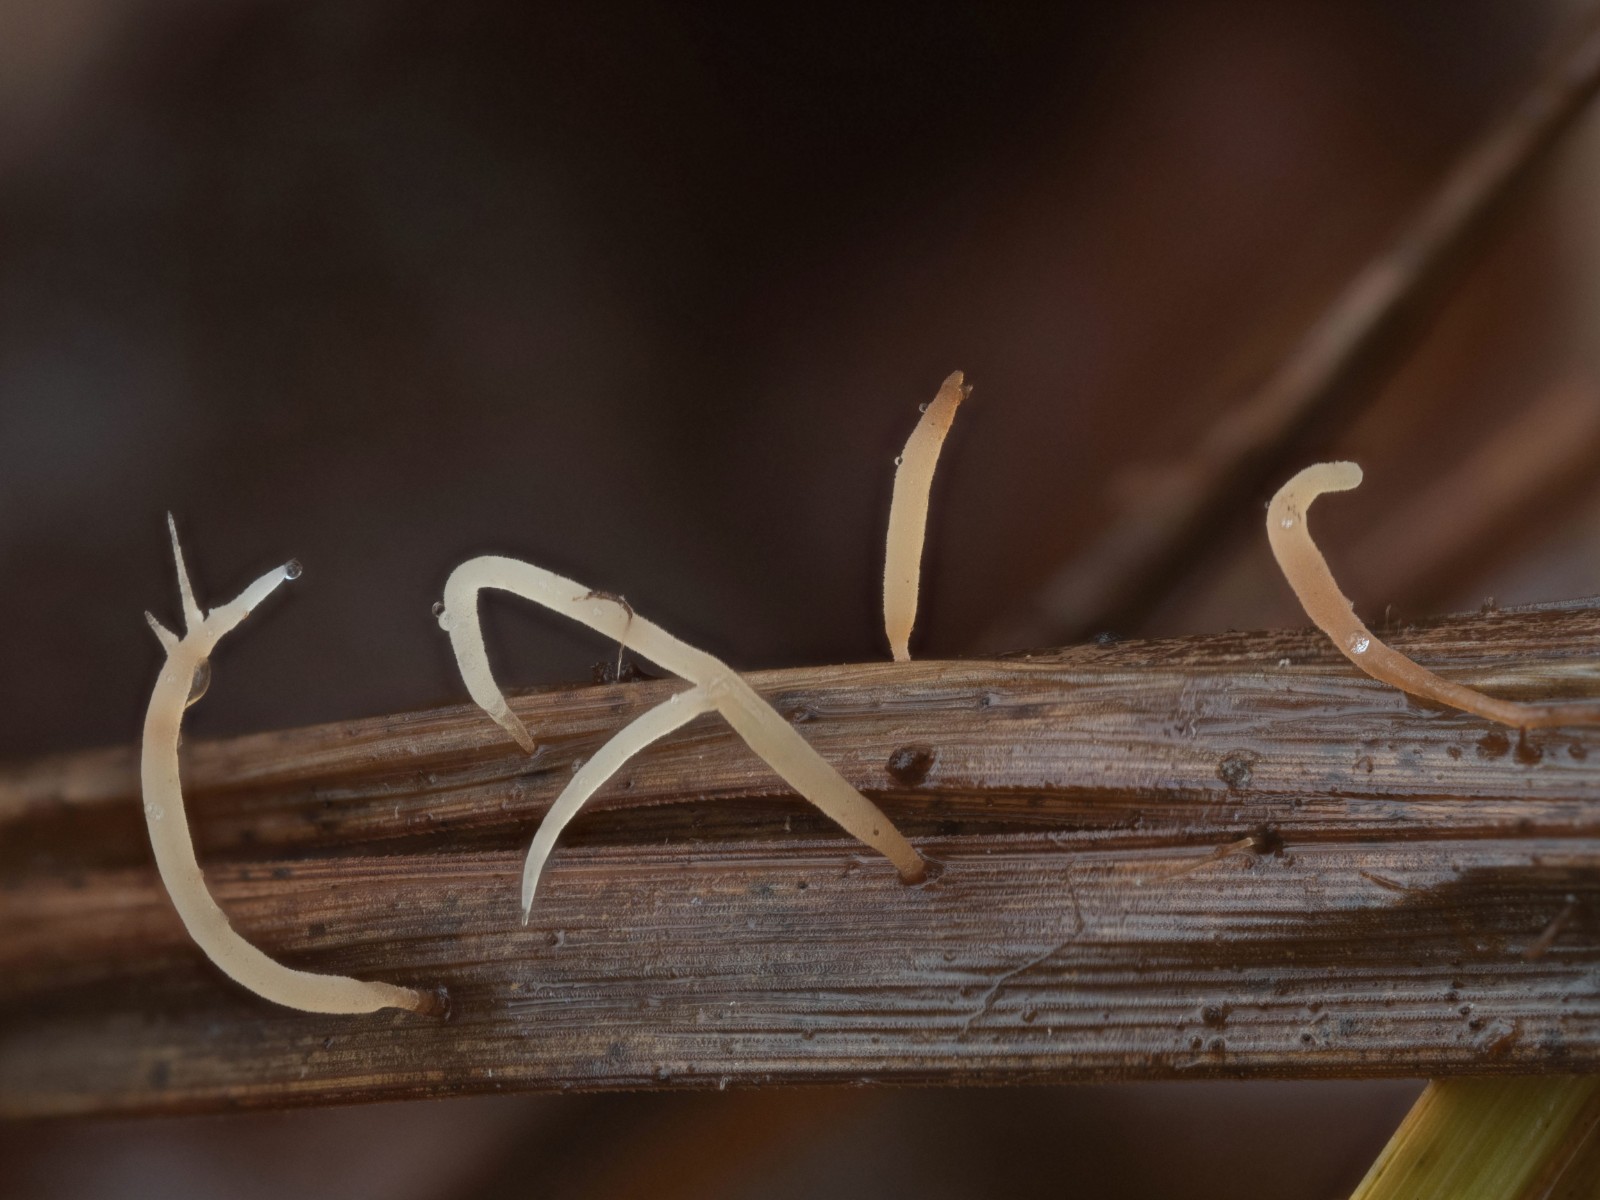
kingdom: Fungi
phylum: Basidiomycota
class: Agaricomycetes
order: Agaricales
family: Pterulaceae
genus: Pterula
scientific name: Pterula
